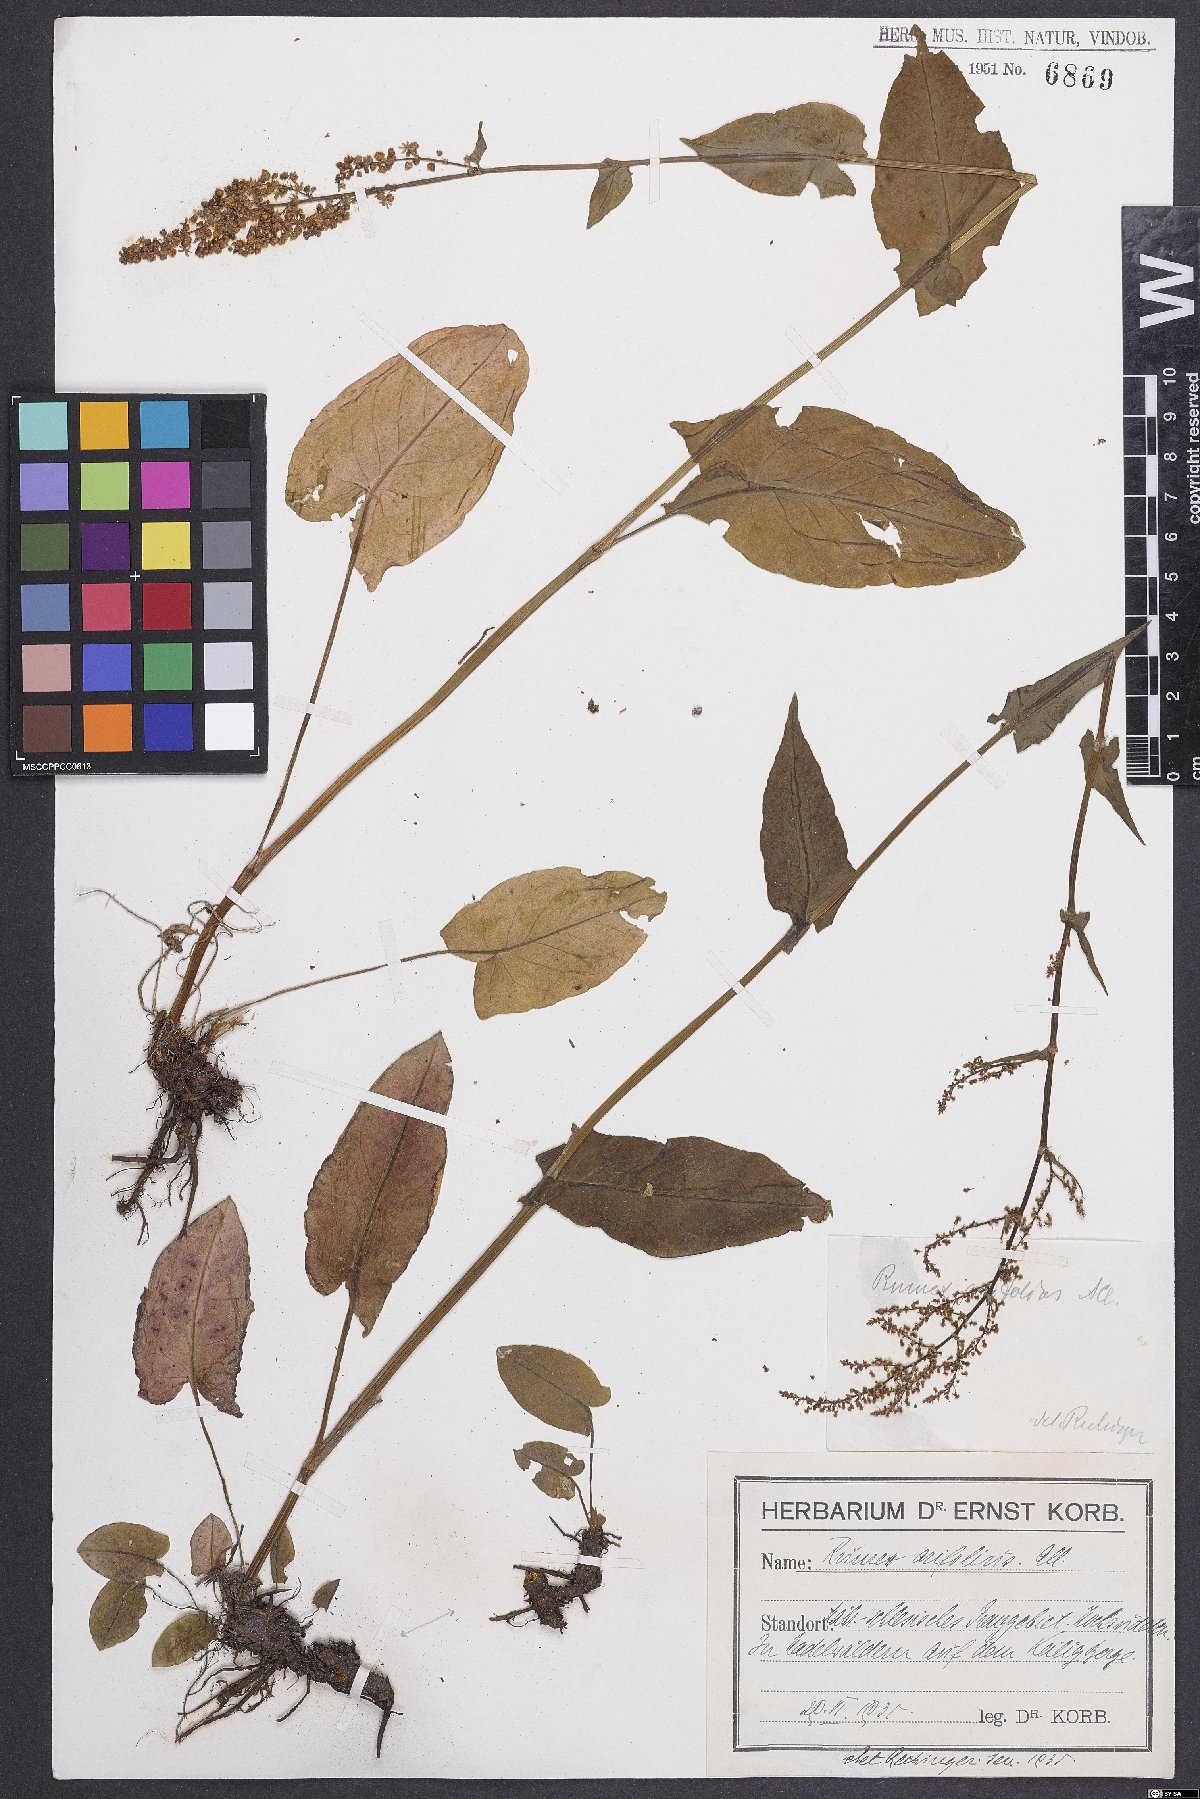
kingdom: Plantae
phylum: Tracheophyta
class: Magnoliopsida
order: Caryophyllales
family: Polygonaceae
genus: Rumex
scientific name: Rumex arifolius
